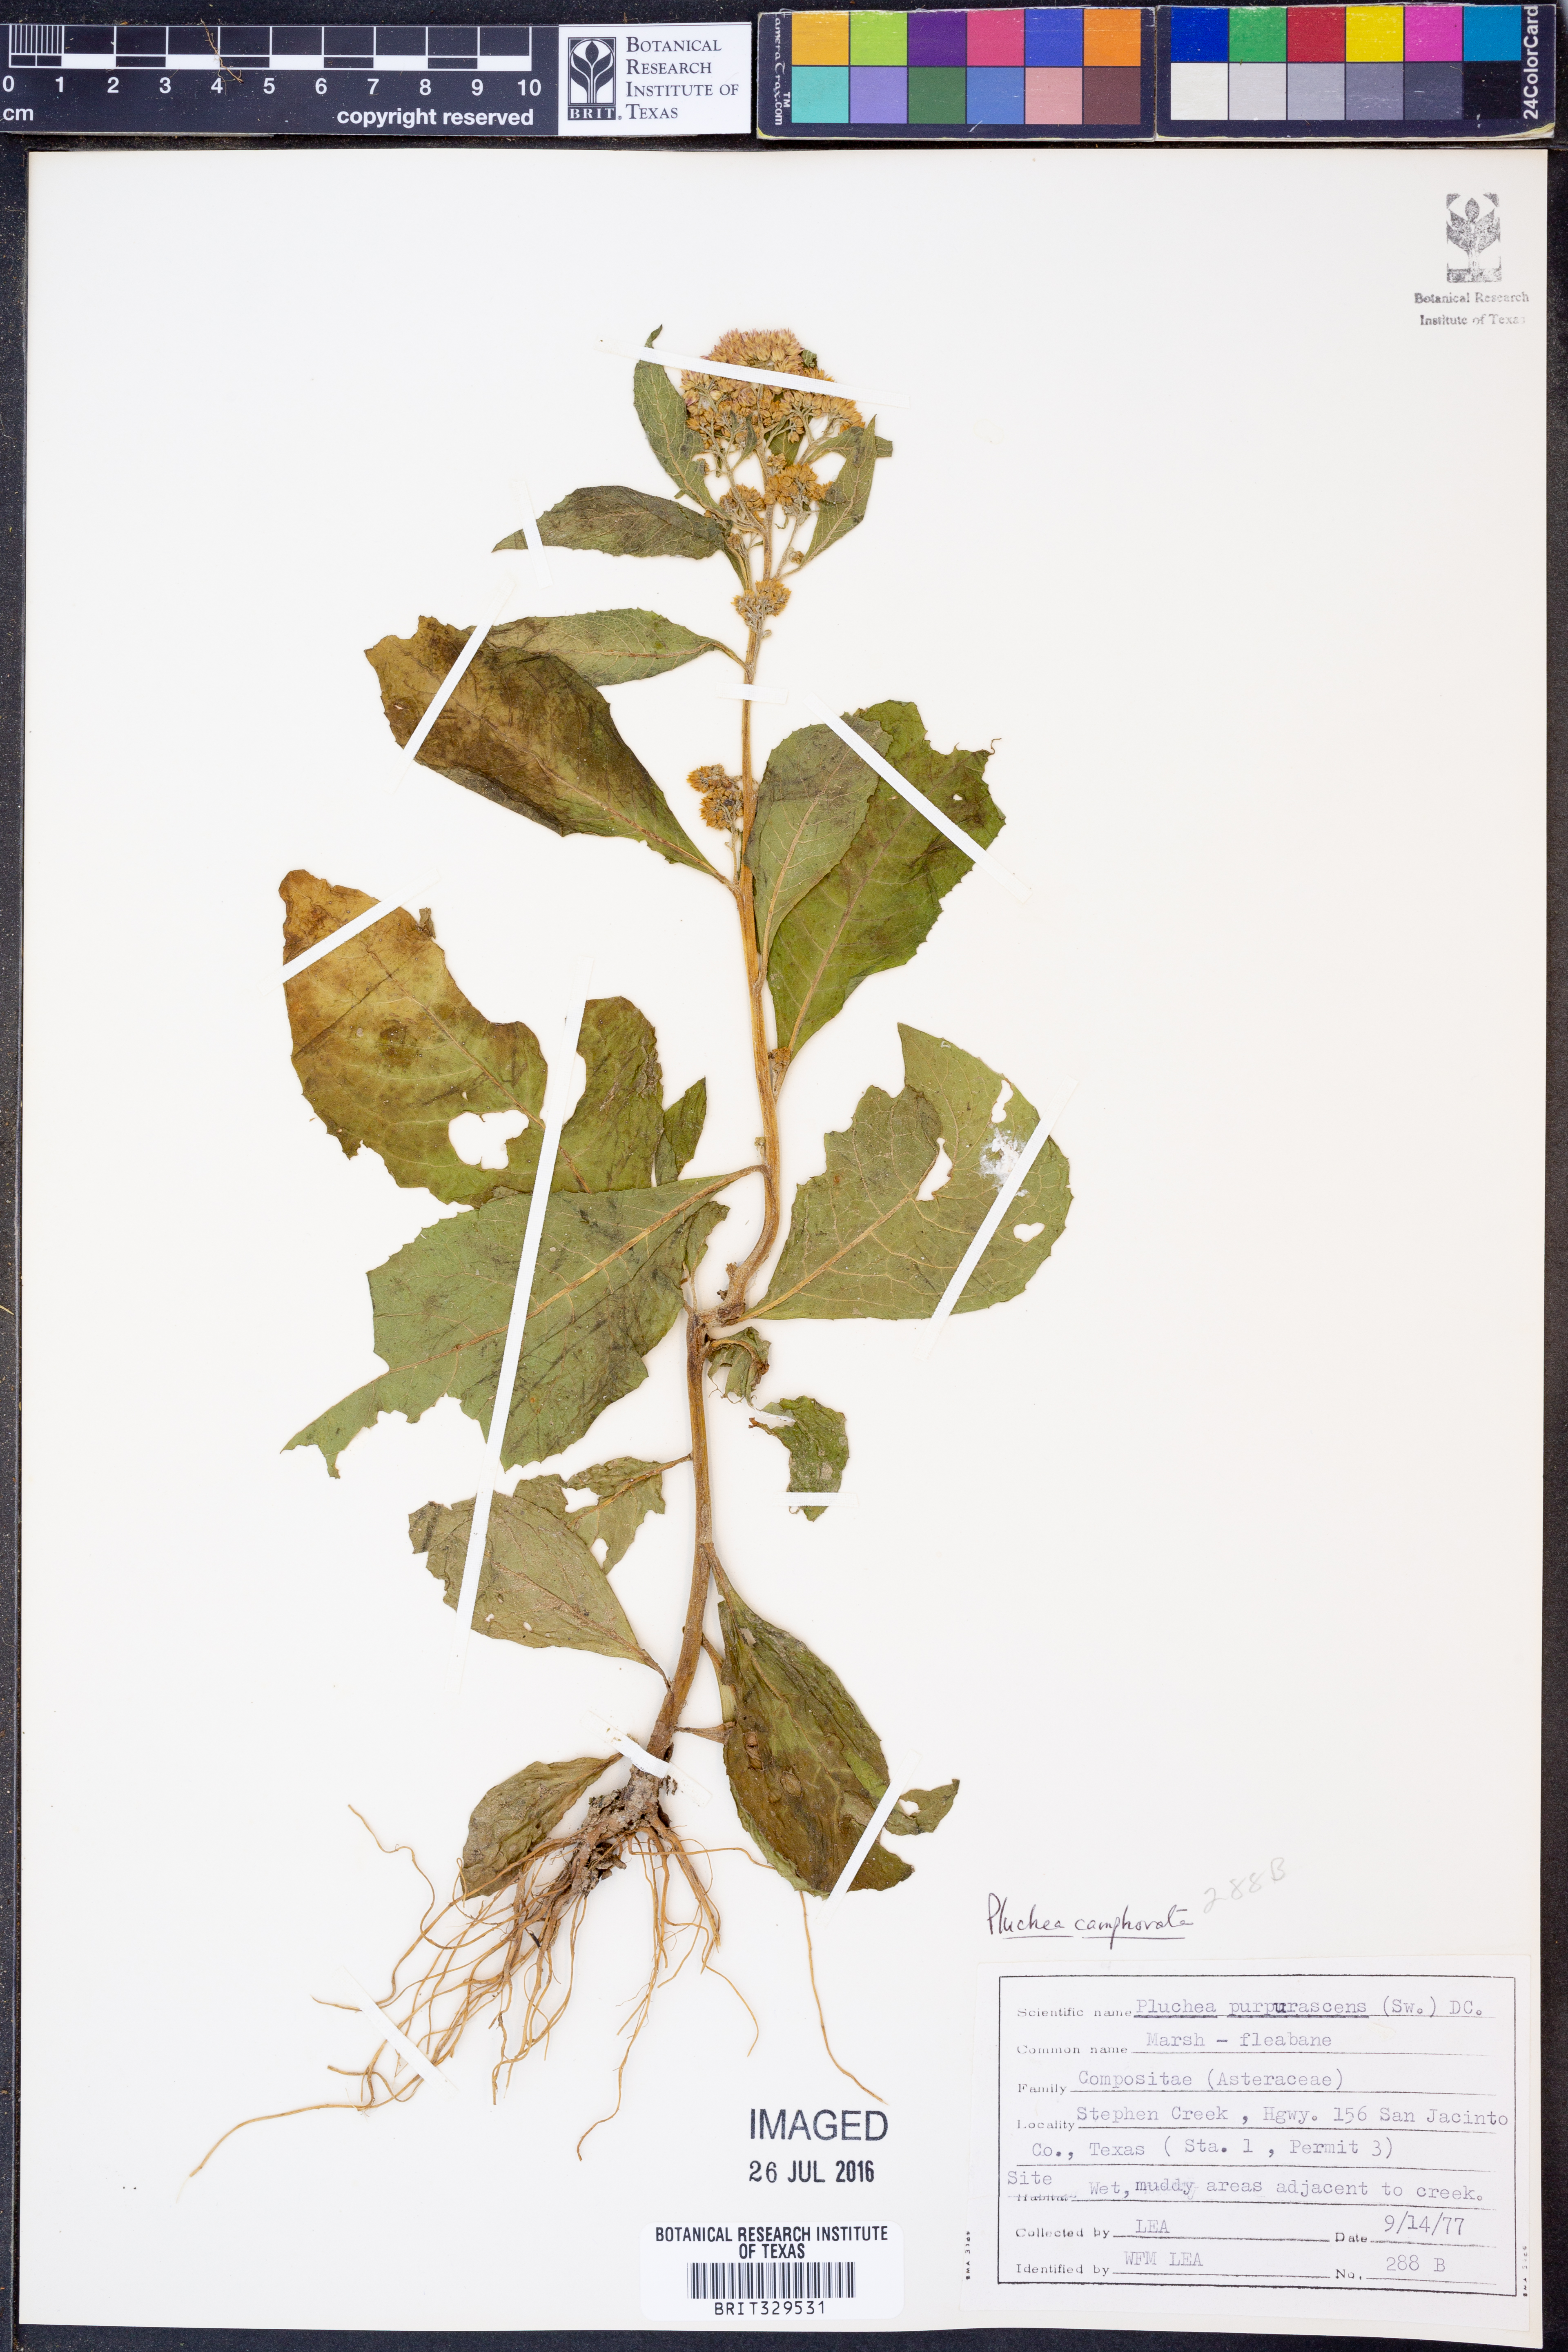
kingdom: Plantae
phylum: Tracheophyta
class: Magnoliopsida
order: Asterales
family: Asteraceae
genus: Pluchea
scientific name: Pluchea camphorata
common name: Camphor pluchea
